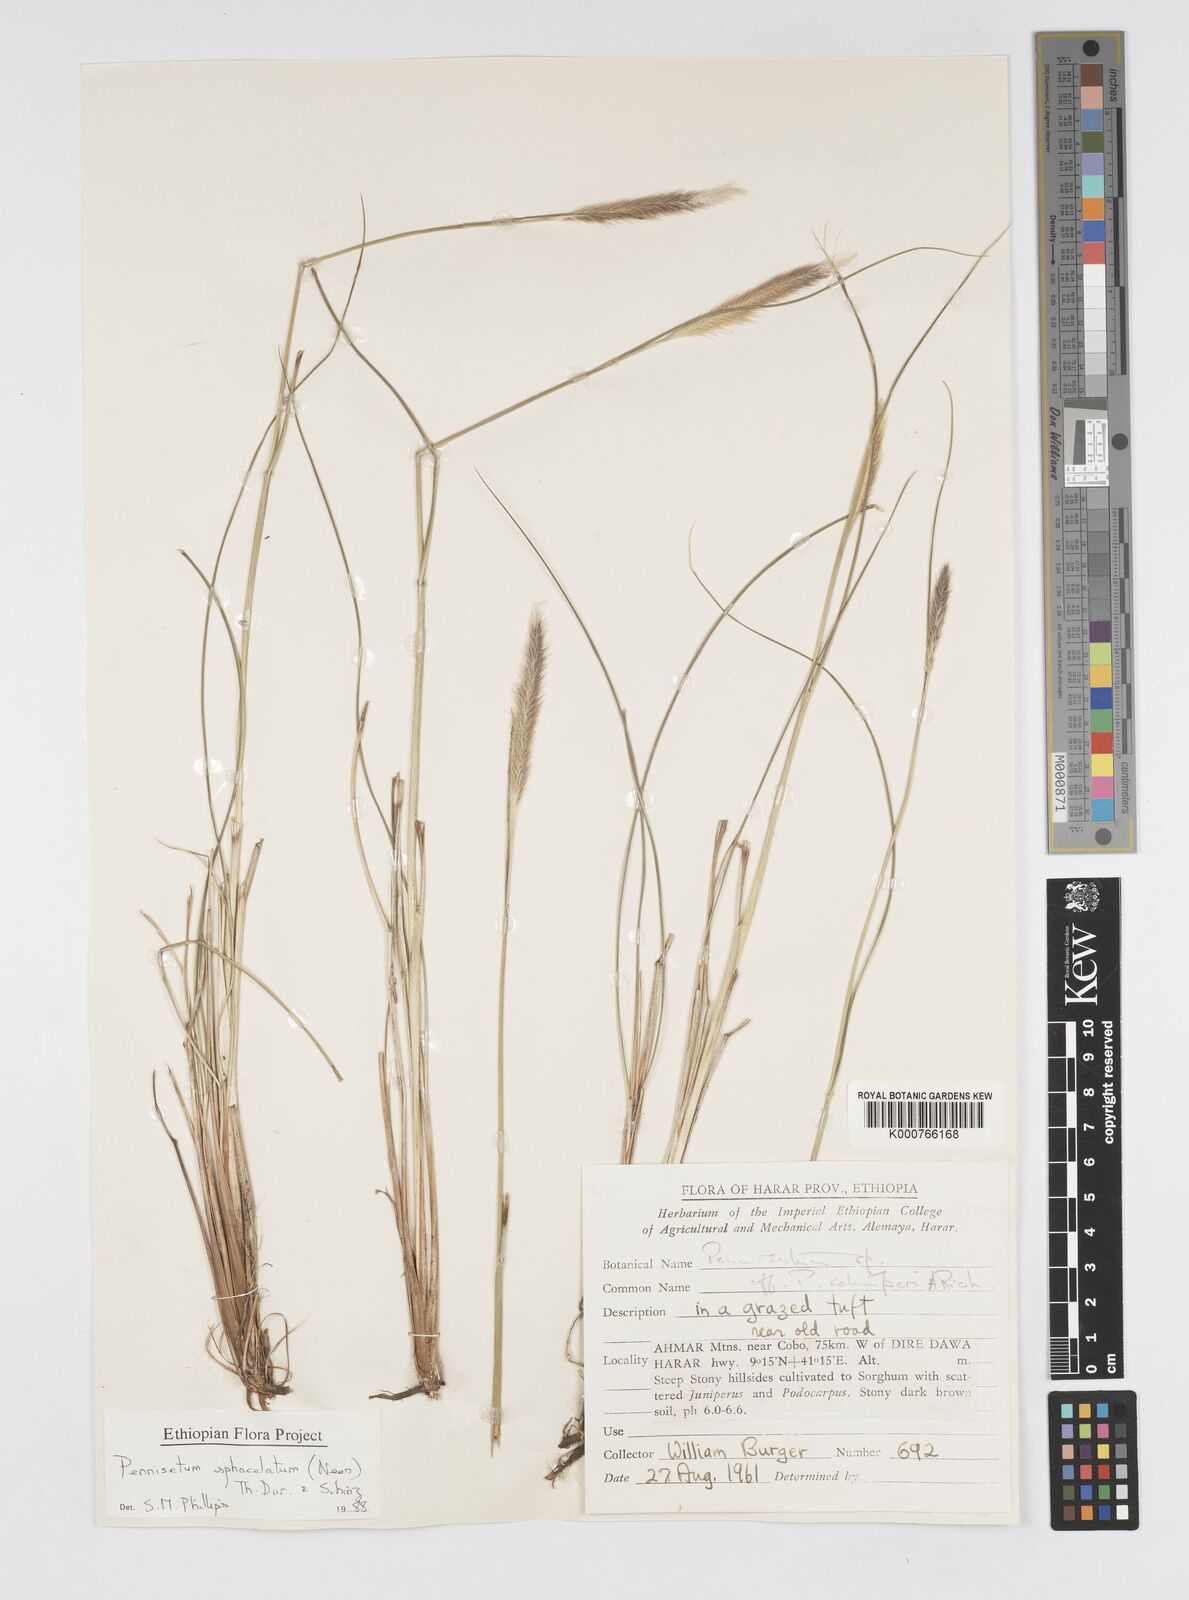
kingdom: Plantae
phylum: Tracheophyta
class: Liliopsida
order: Poales
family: Poaceae
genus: Cenchrus
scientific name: Cenchrus sphacelatus
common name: Bulgras
